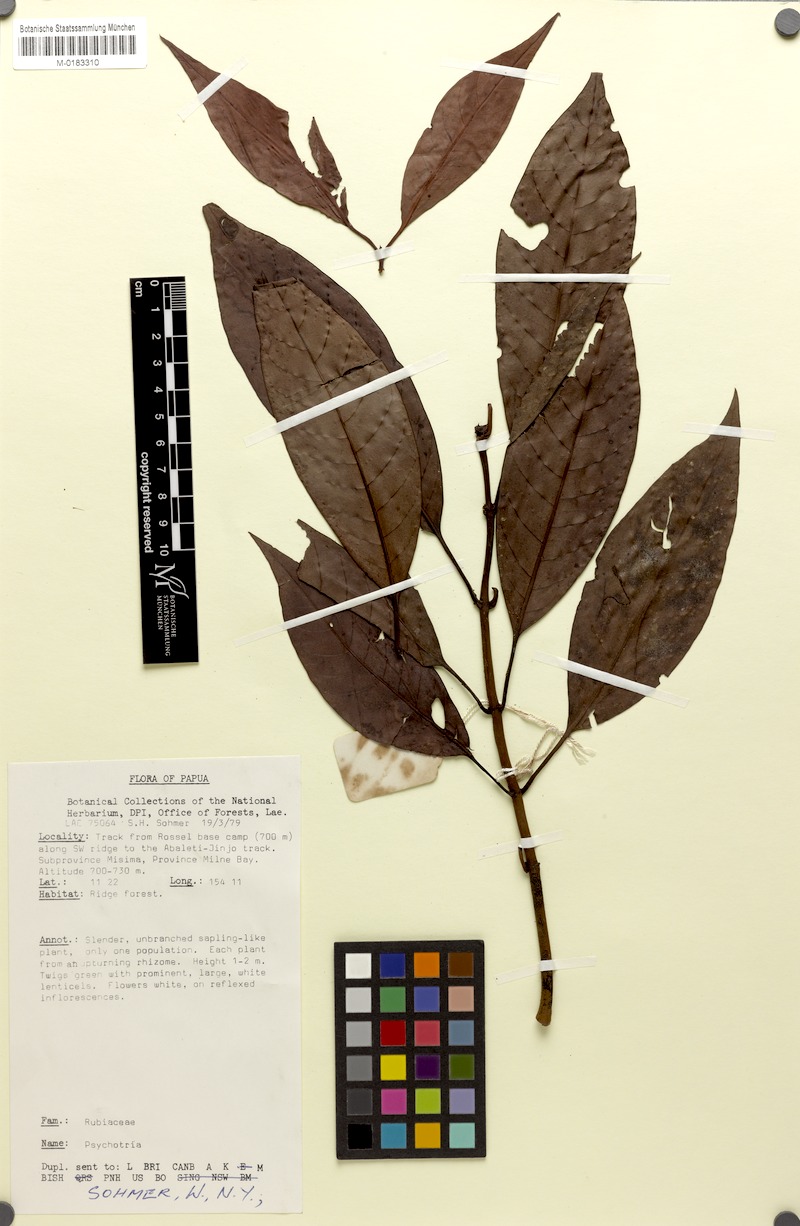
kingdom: Plantae
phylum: Tracheophyta
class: Magnoliopsida
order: Gentianales
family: Rubiaceae
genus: Psychotria
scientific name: Psychotria reflexapedunculata
